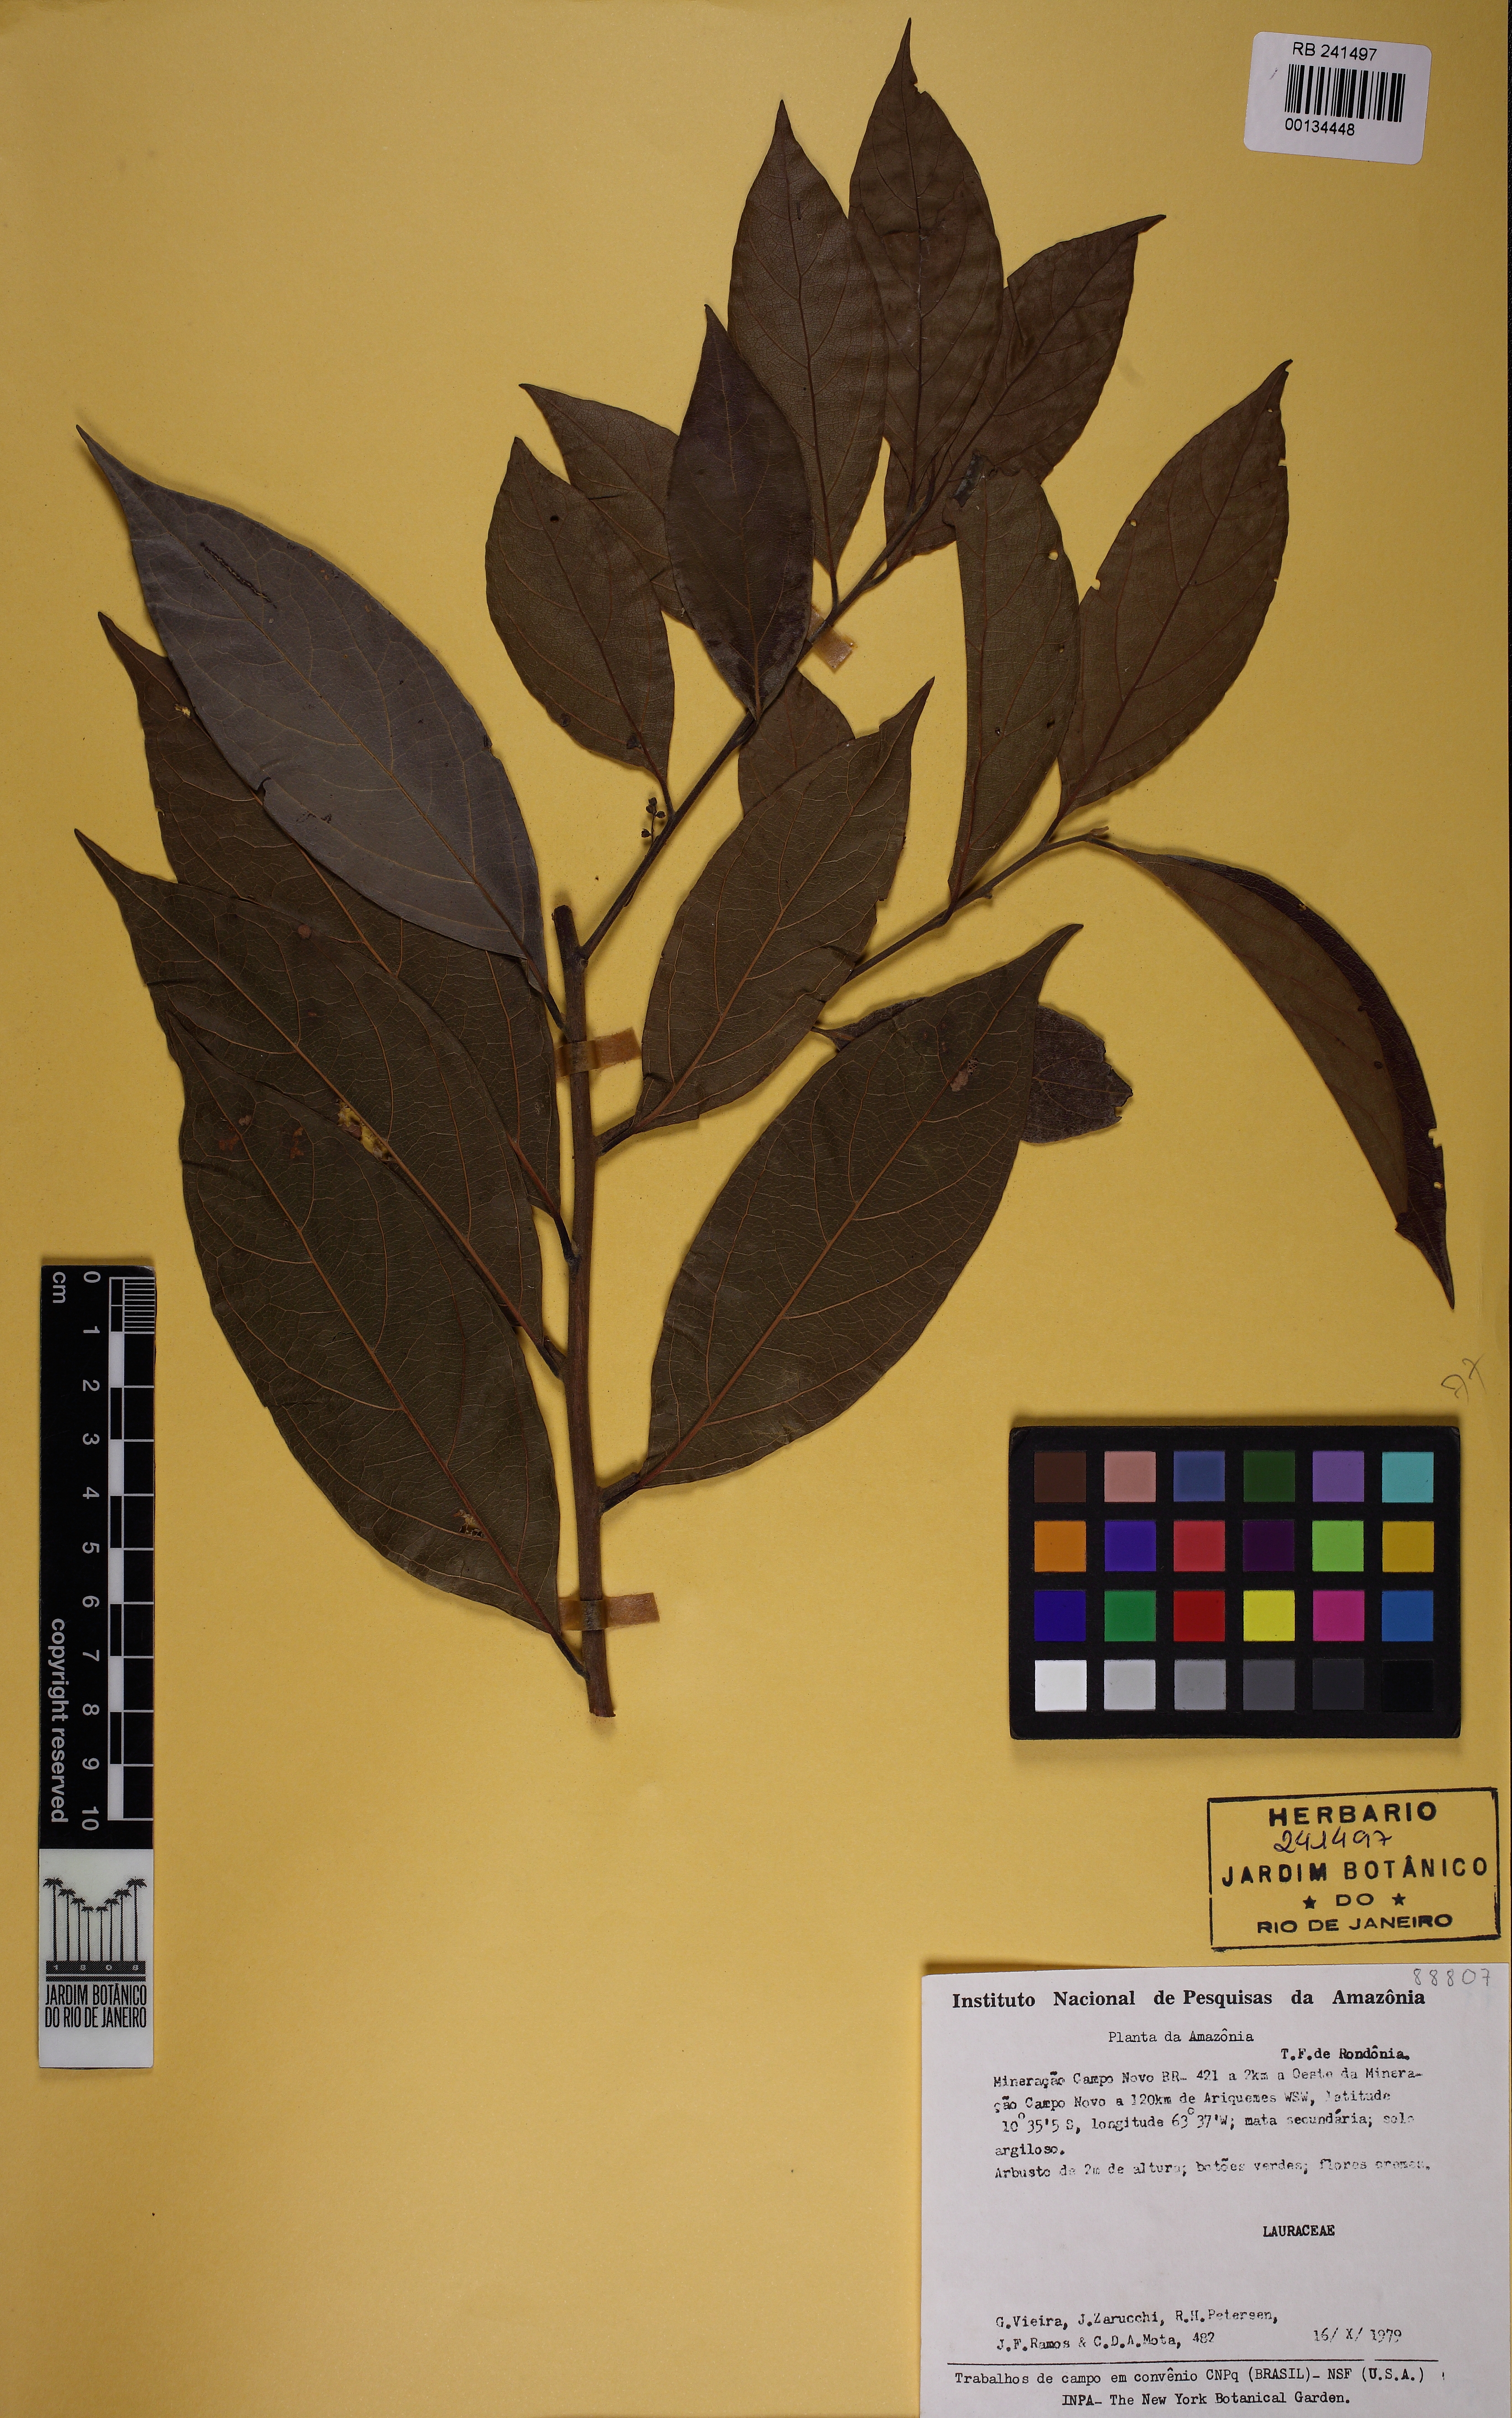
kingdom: Plantae
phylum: Tracheophyta
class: Magnoliopsida
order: Laurales
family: Lauraceae
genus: Ocotea
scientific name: Ocotea
